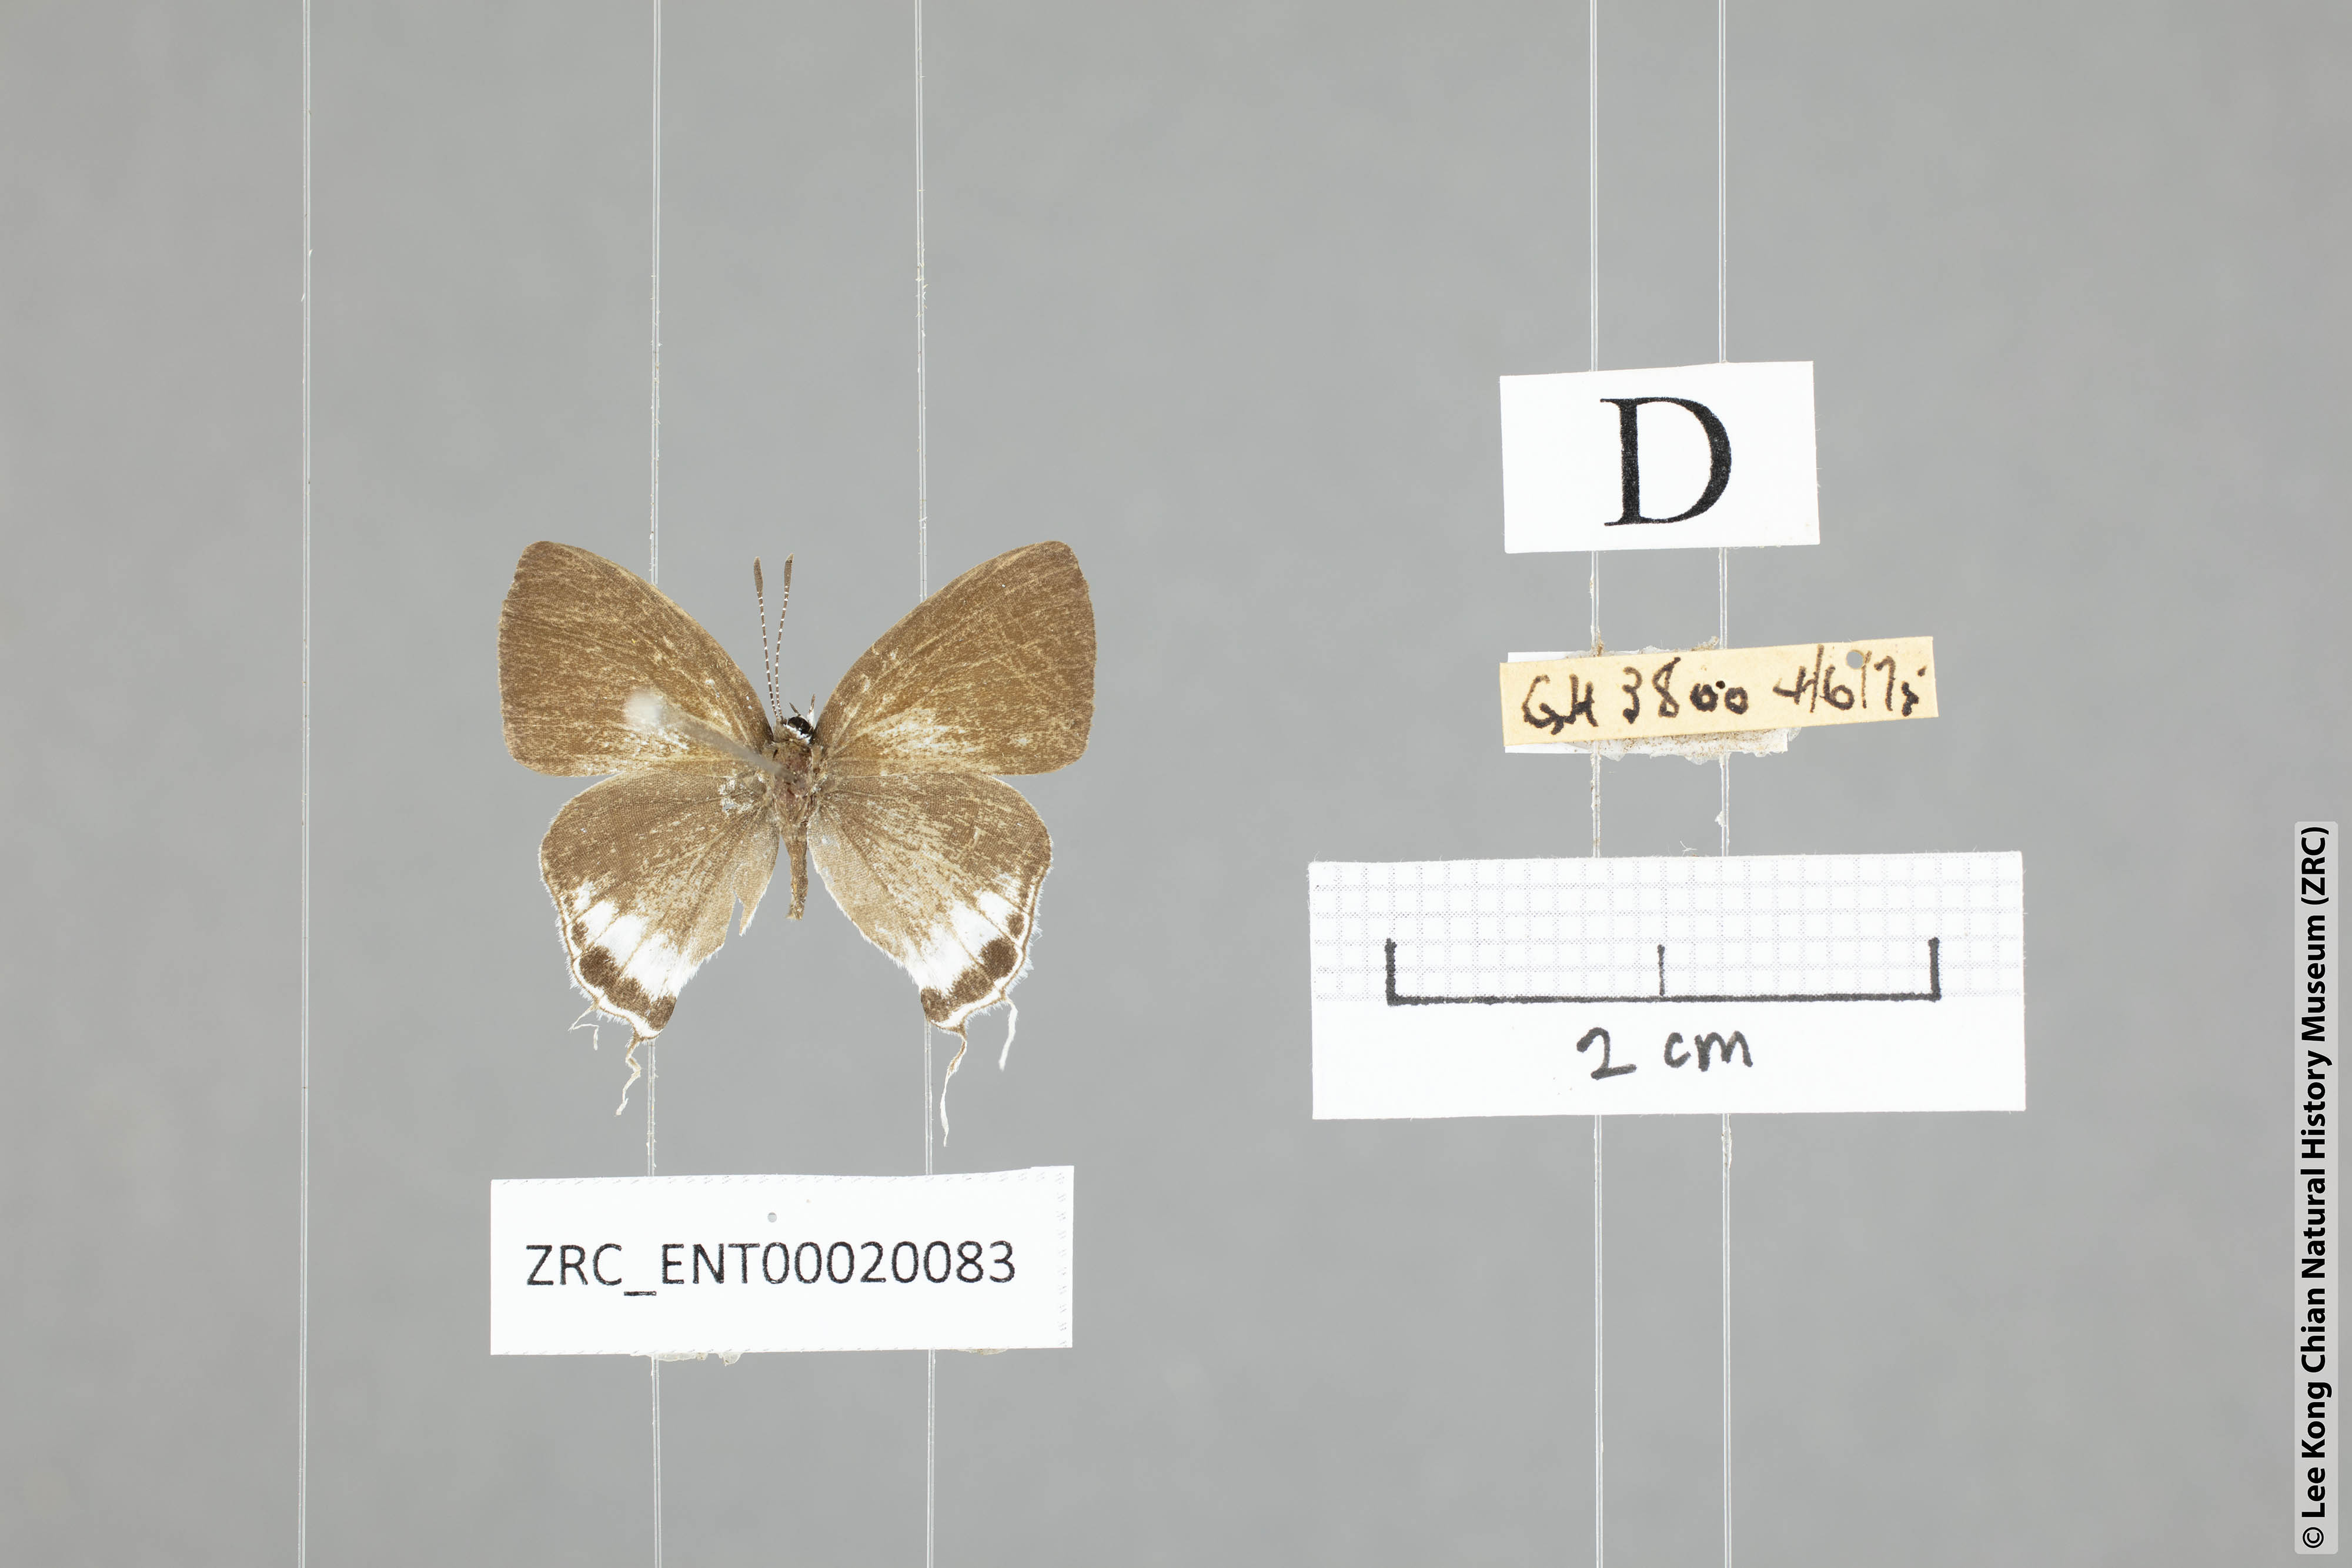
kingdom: Animalia
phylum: Arthropoda
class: Insecta
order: Lepidoptera
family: Lycaenidae
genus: Hypolycaena
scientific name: Hypolycaena amabilis
